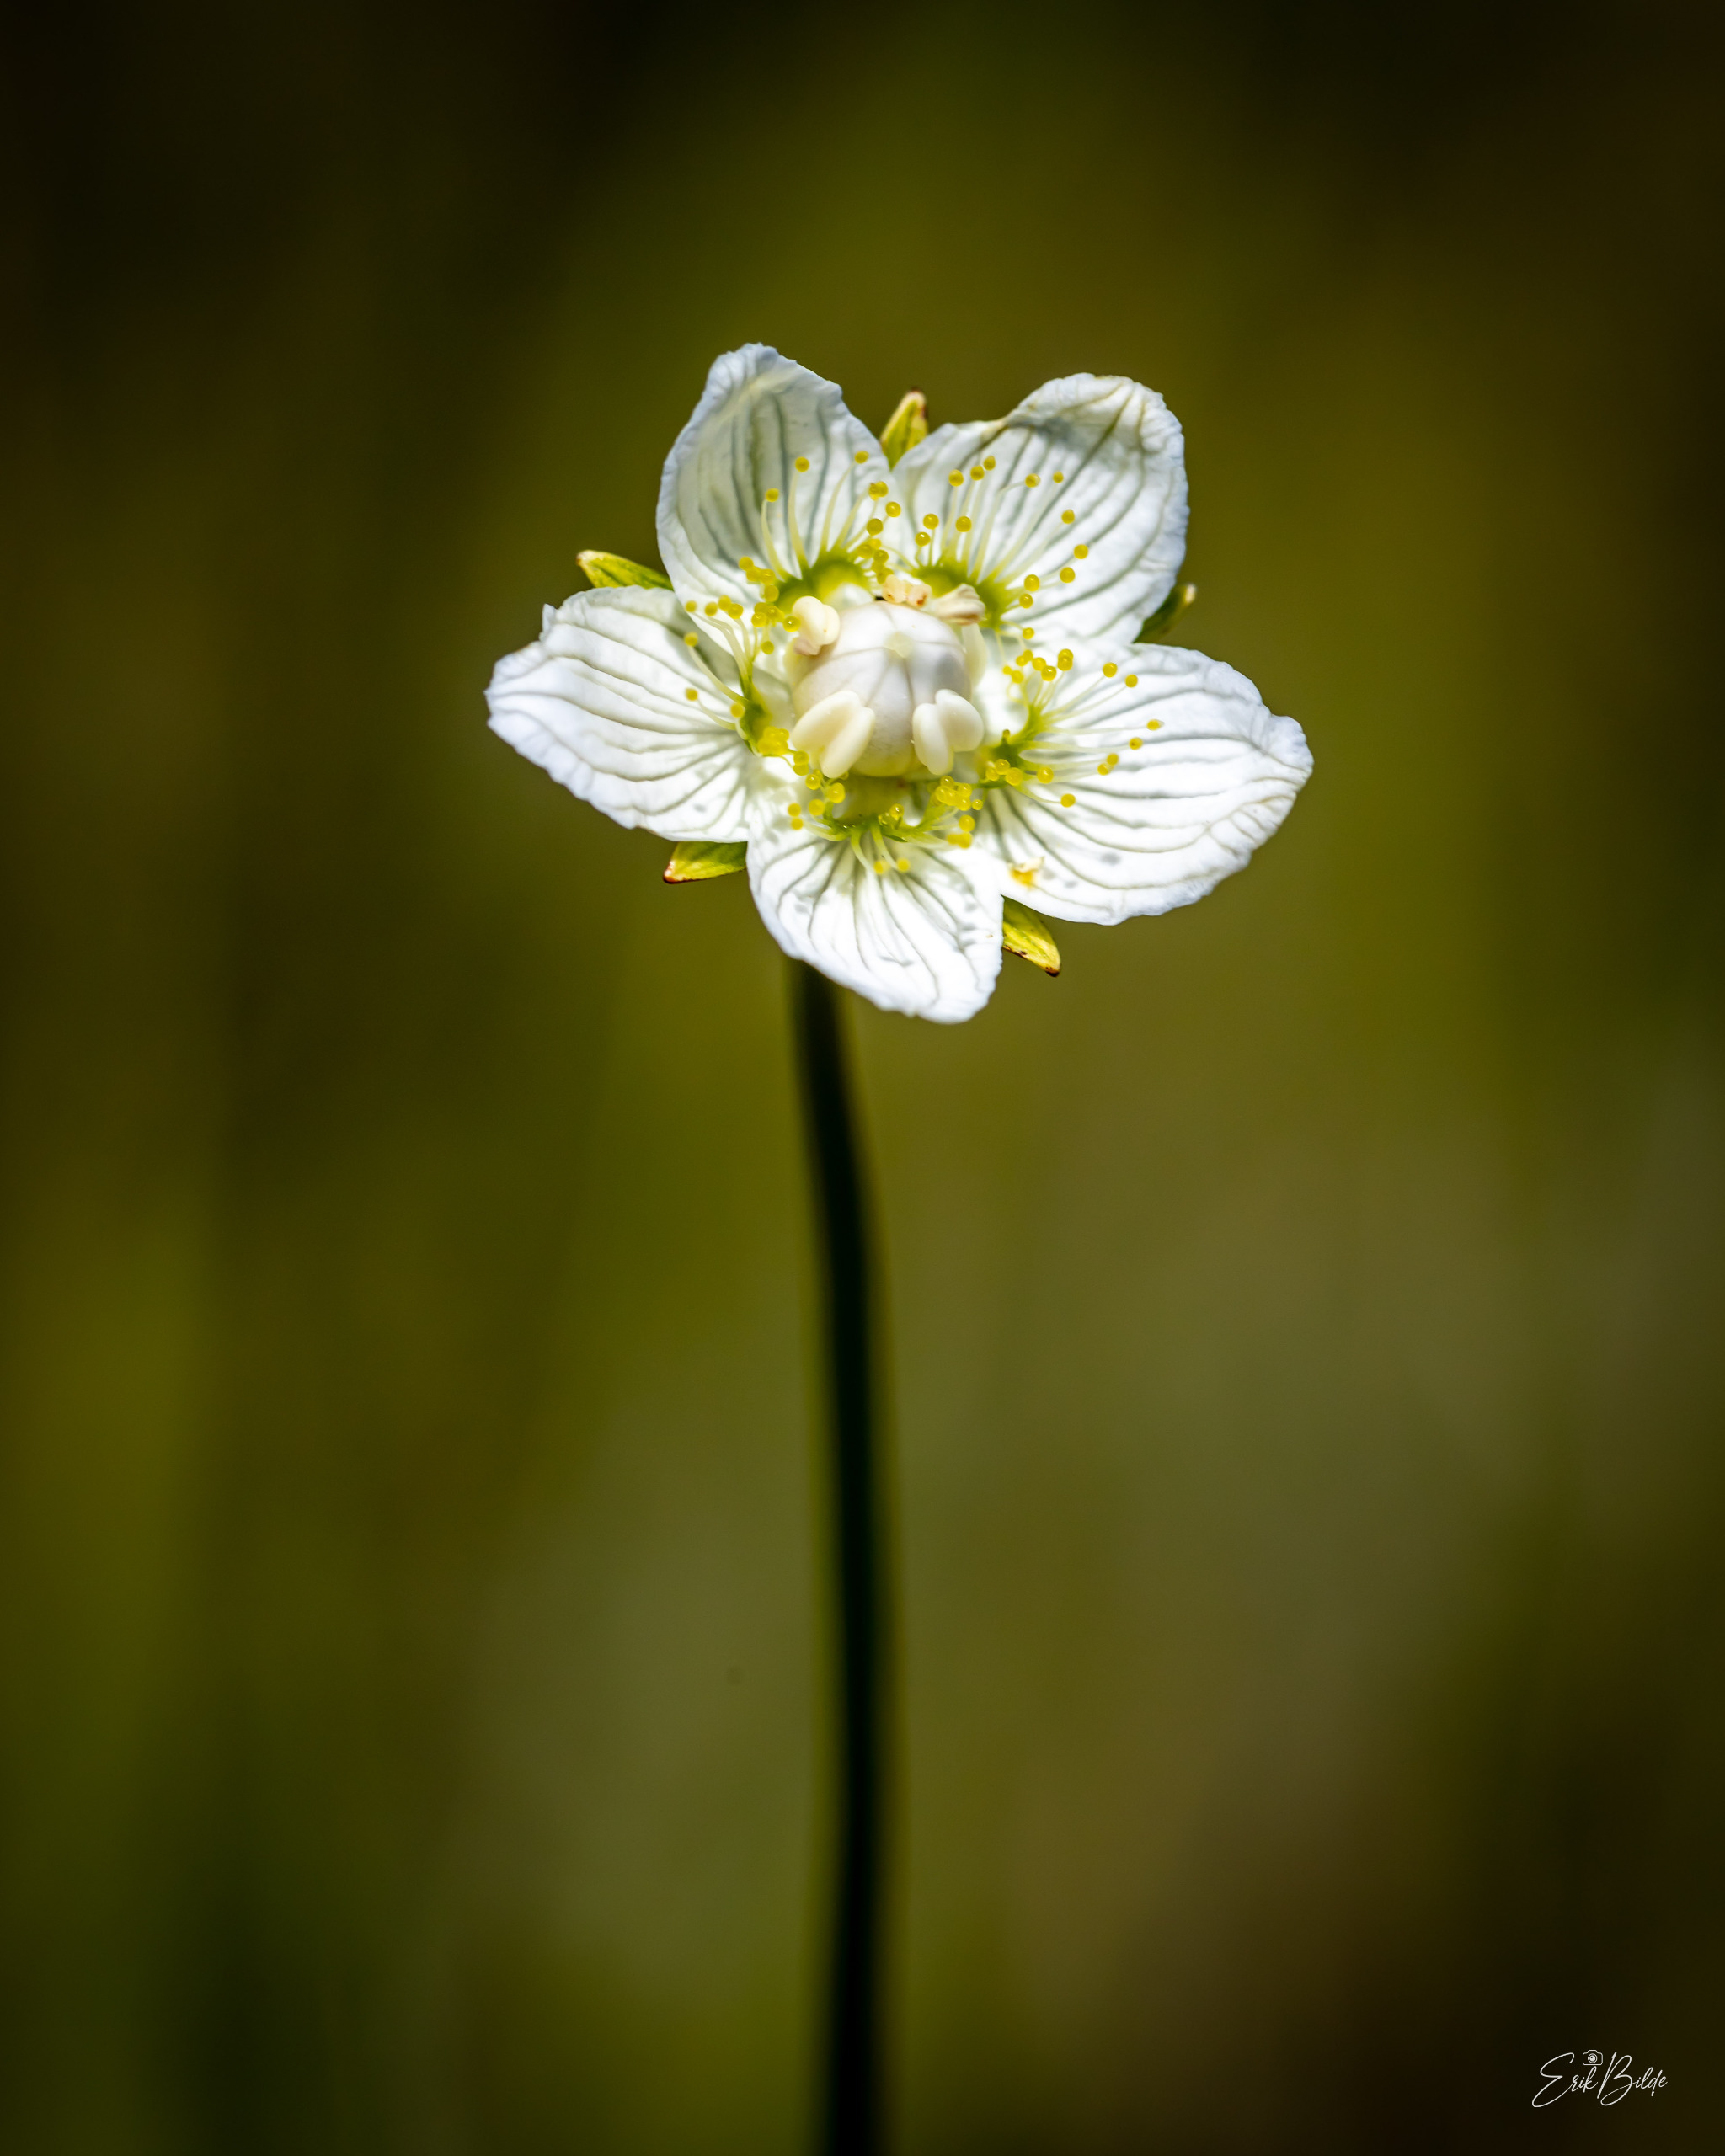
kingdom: Plantae
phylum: Tracheophyta
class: Magnoliopsida
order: Celastrales
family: Parnassiaceae
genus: Parnassia
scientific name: Parnassia palustris
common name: Leverurt
